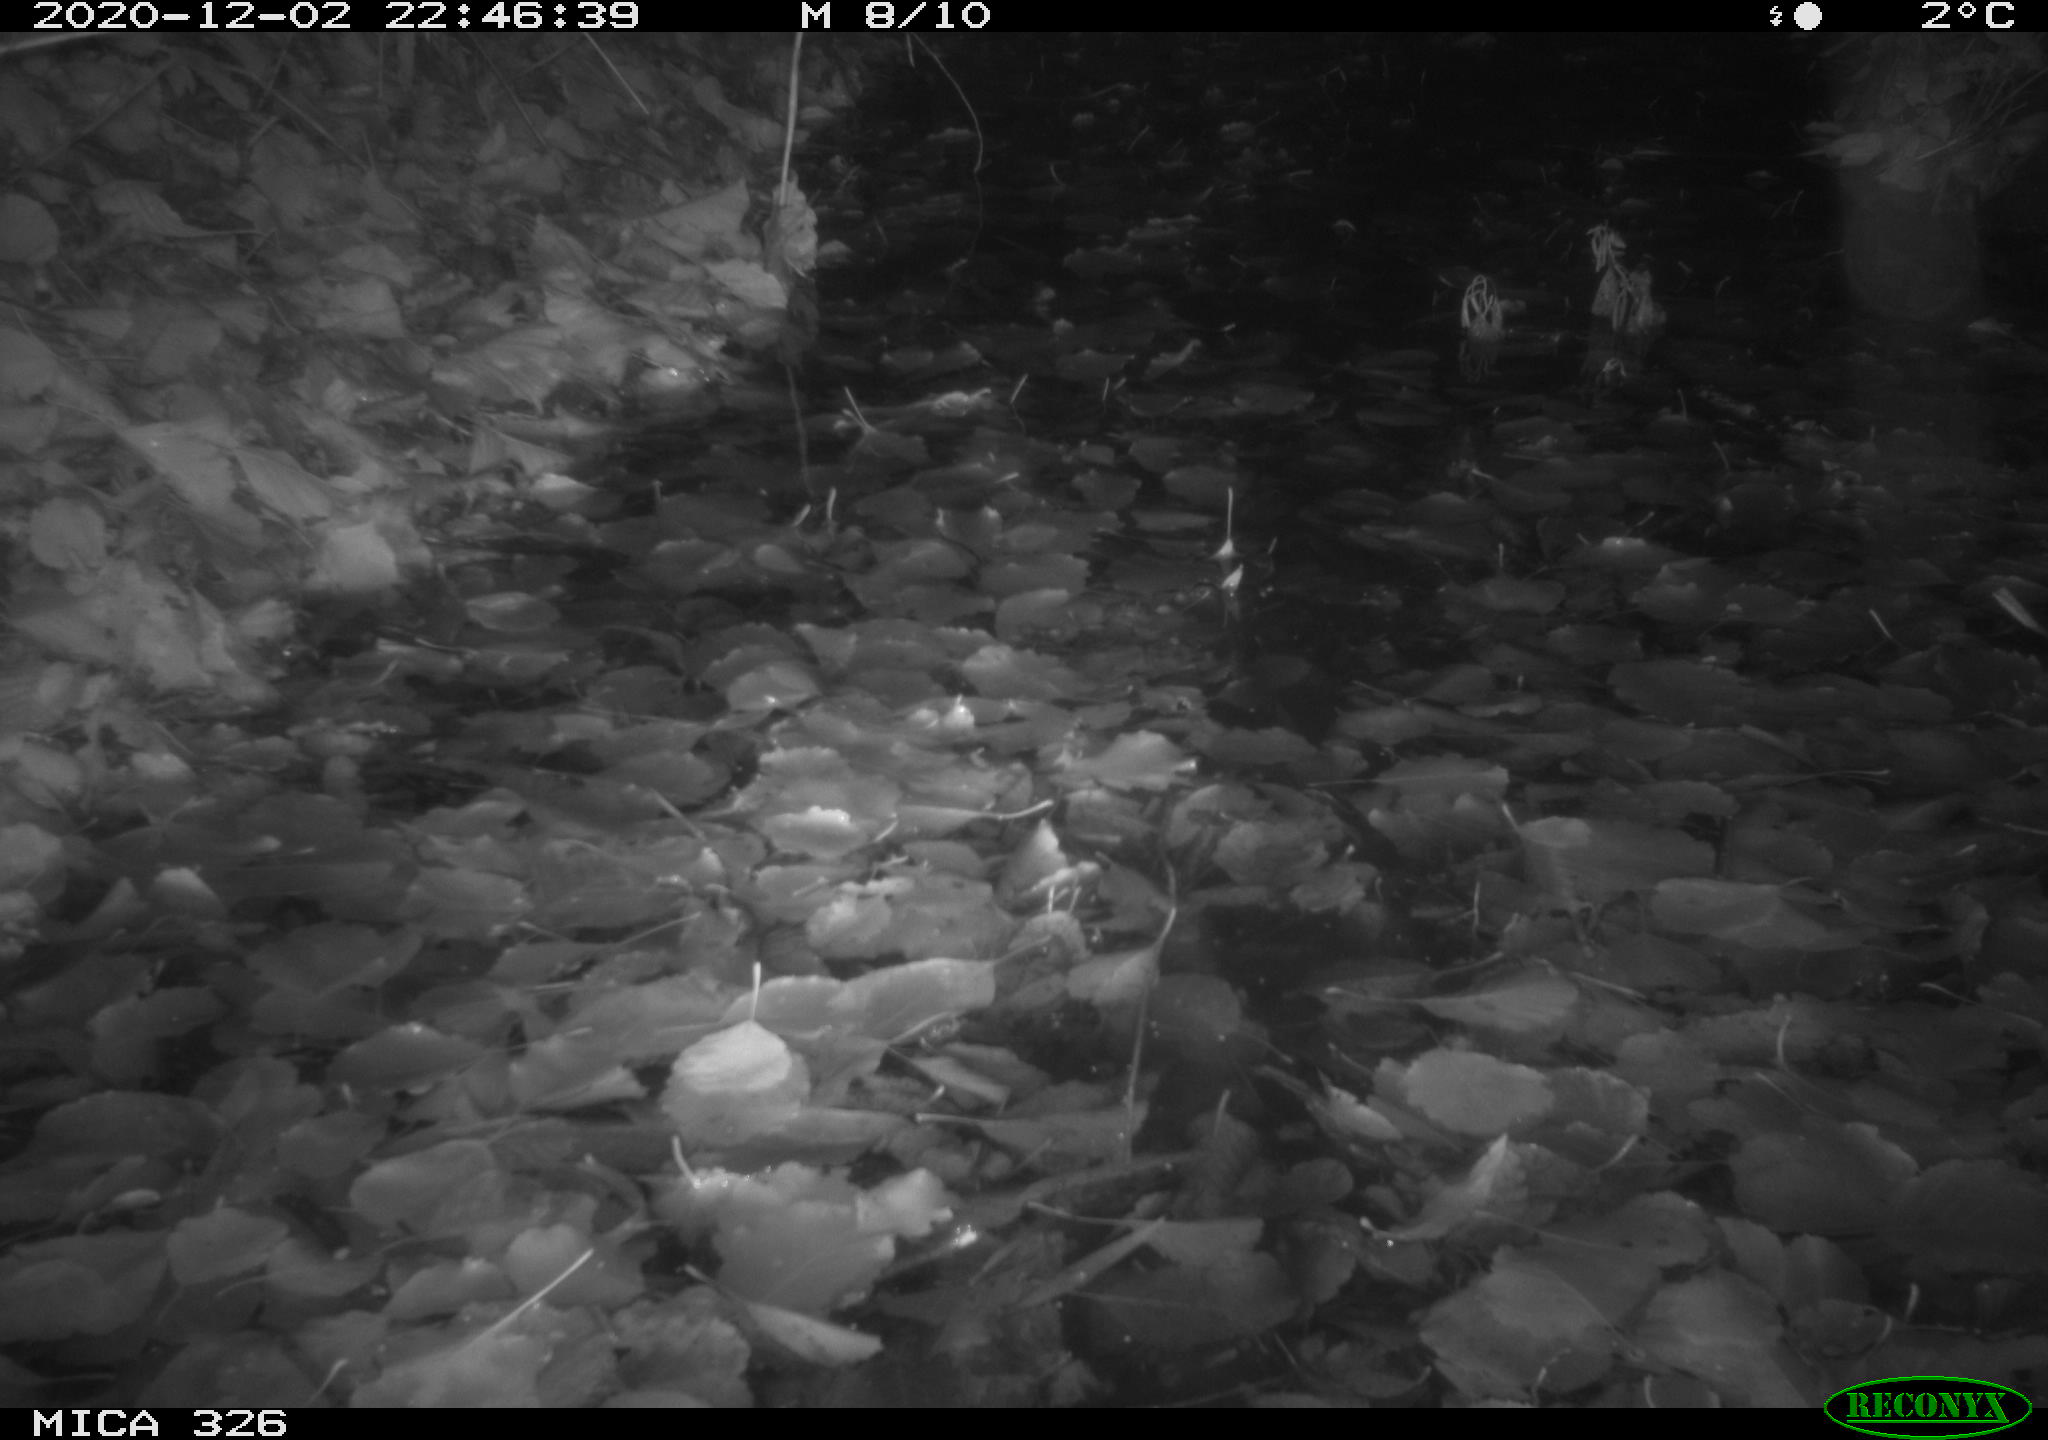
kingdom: Animalia
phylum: Chordata
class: Mammalia
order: Carnivora
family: Mustelidae
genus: Lutra
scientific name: Lutra lutra
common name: European otter
